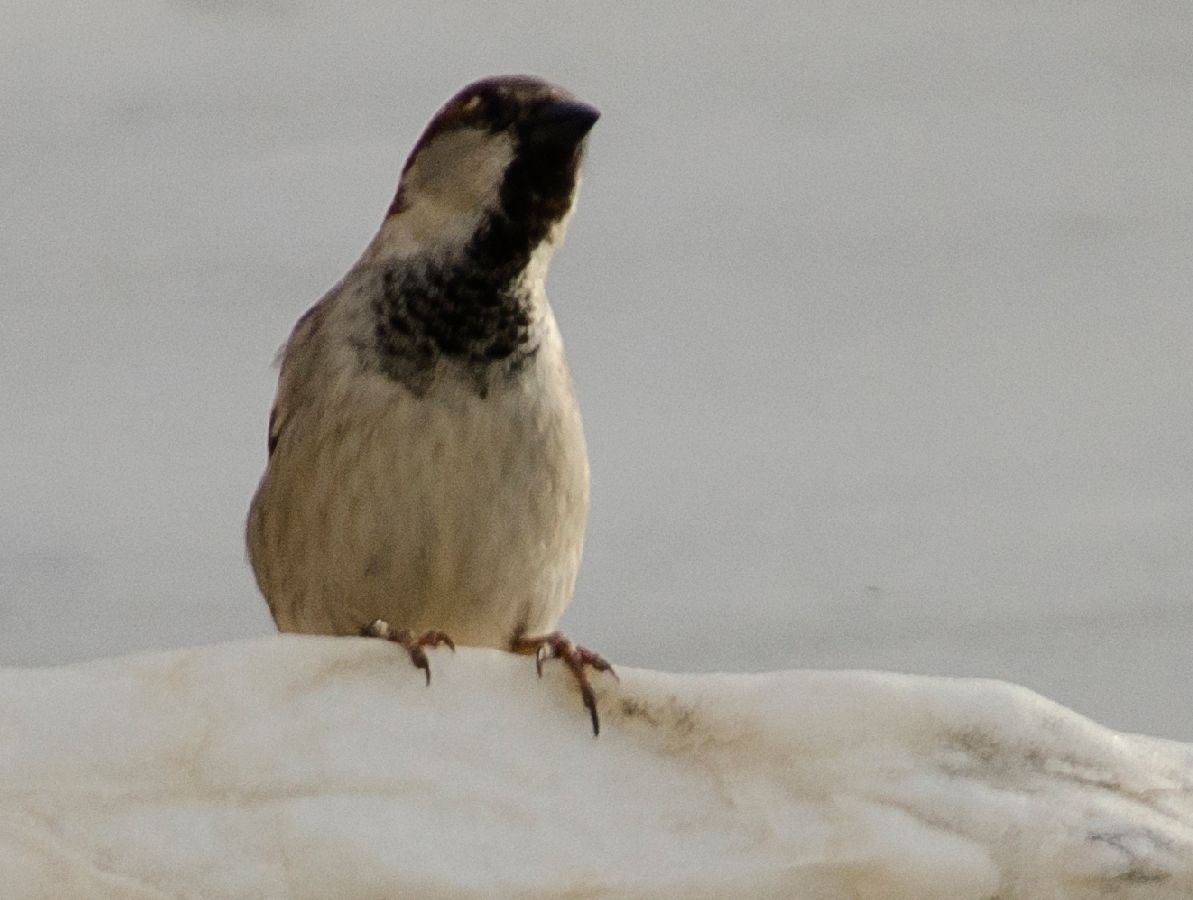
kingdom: Animalia
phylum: Chordata
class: Aves
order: Passeriformes
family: Passeridae
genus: Passer
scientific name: Passer domesticus
